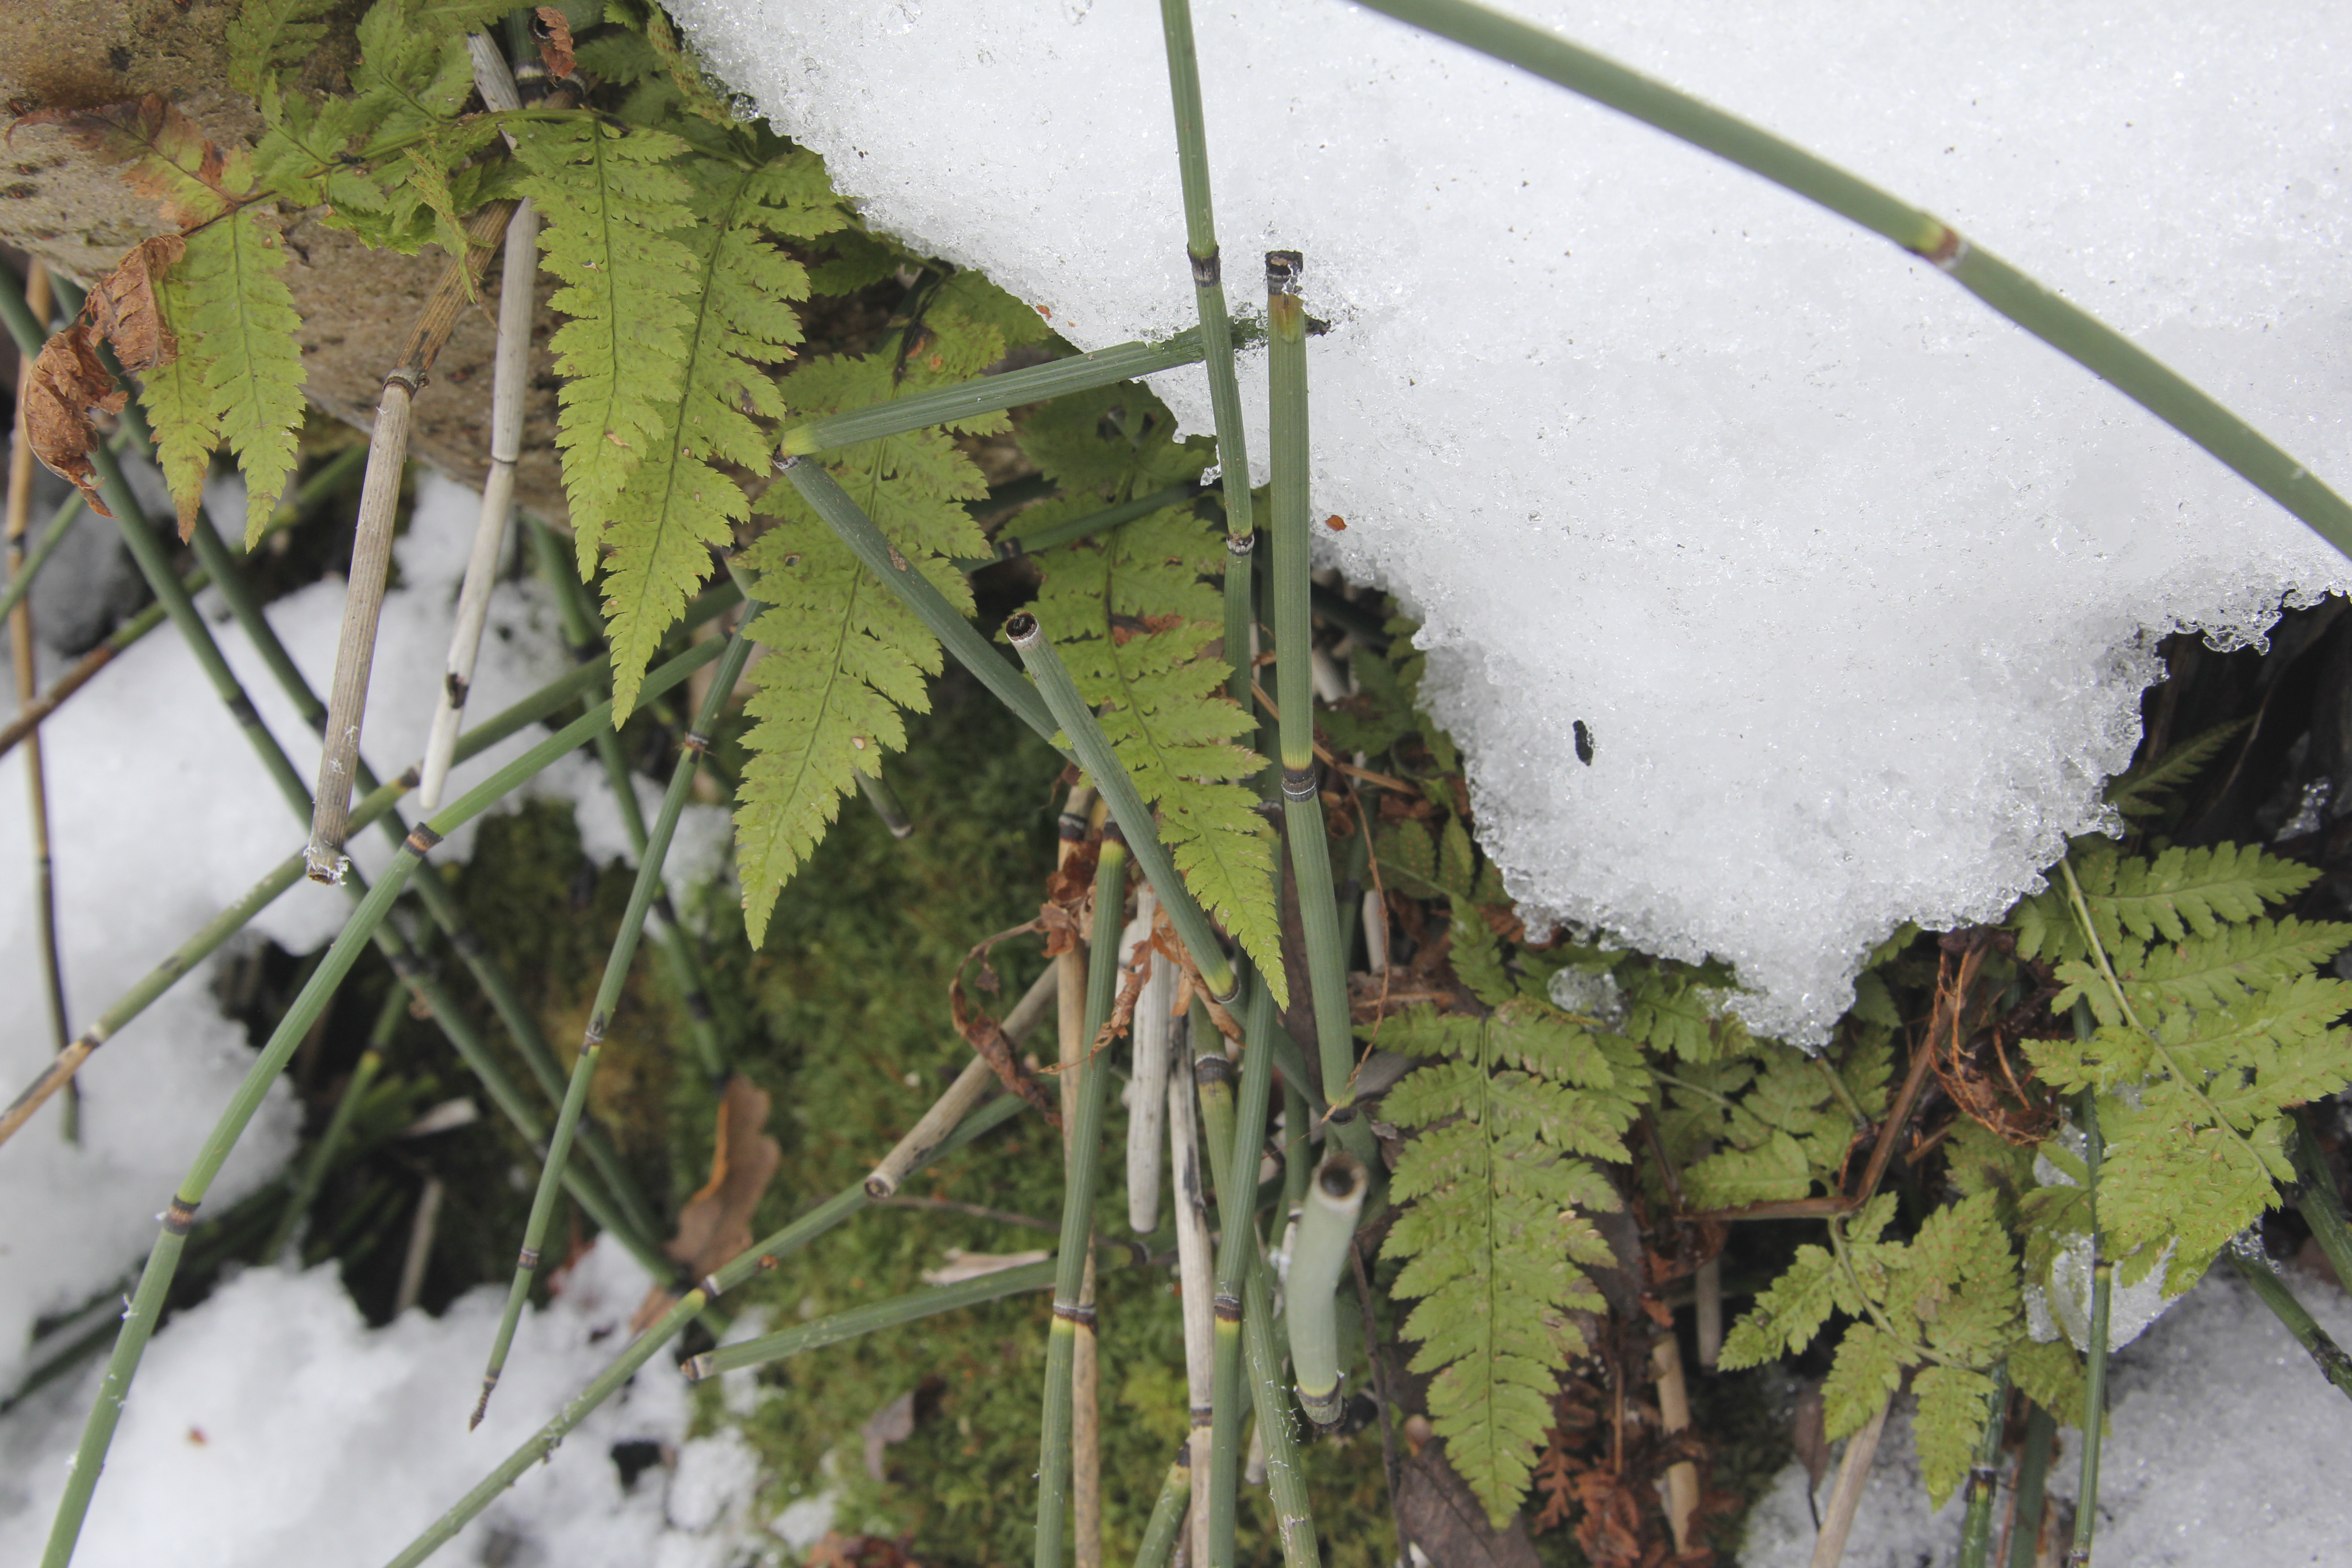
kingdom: Plantae
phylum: Tracheophyta
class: Polypodiopsida
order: Polypodiales
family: Dryopteridaceae
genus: Dryopteris
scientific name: Dryopteris carthusiana
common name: Narrow buckler-fern
